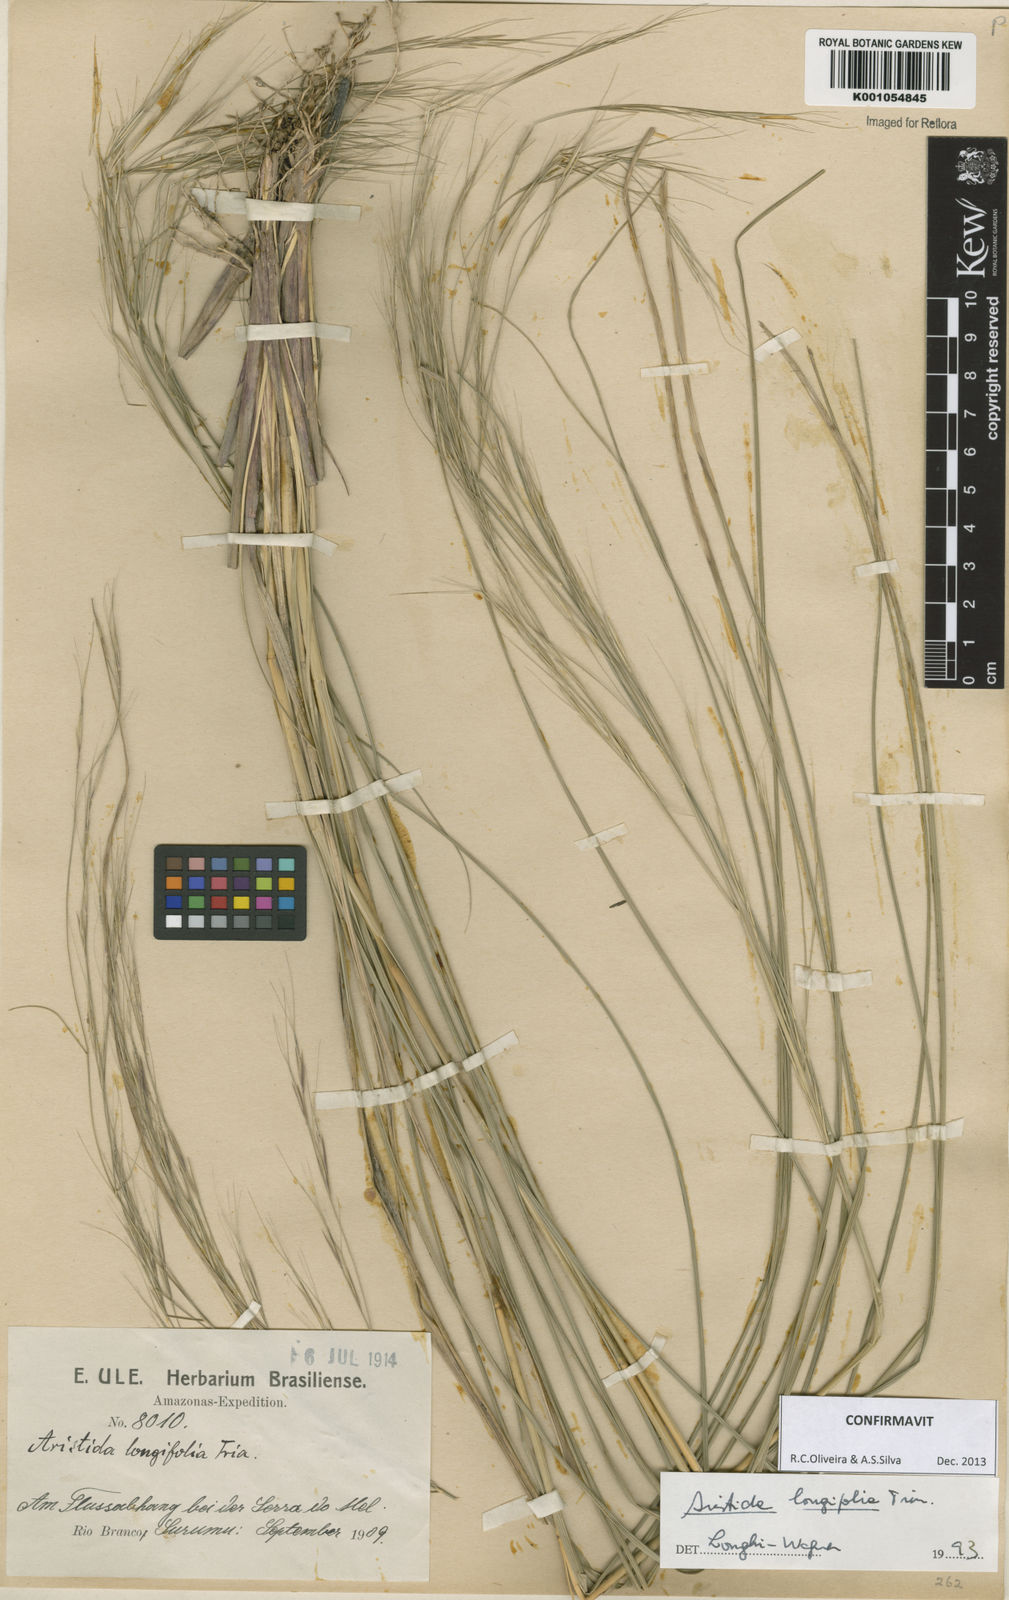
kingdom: Plantae
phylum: Tracheophyta
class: Liliopsida
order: Poales
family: Poaceae
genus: Aristida
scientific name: Aristida longifolia
